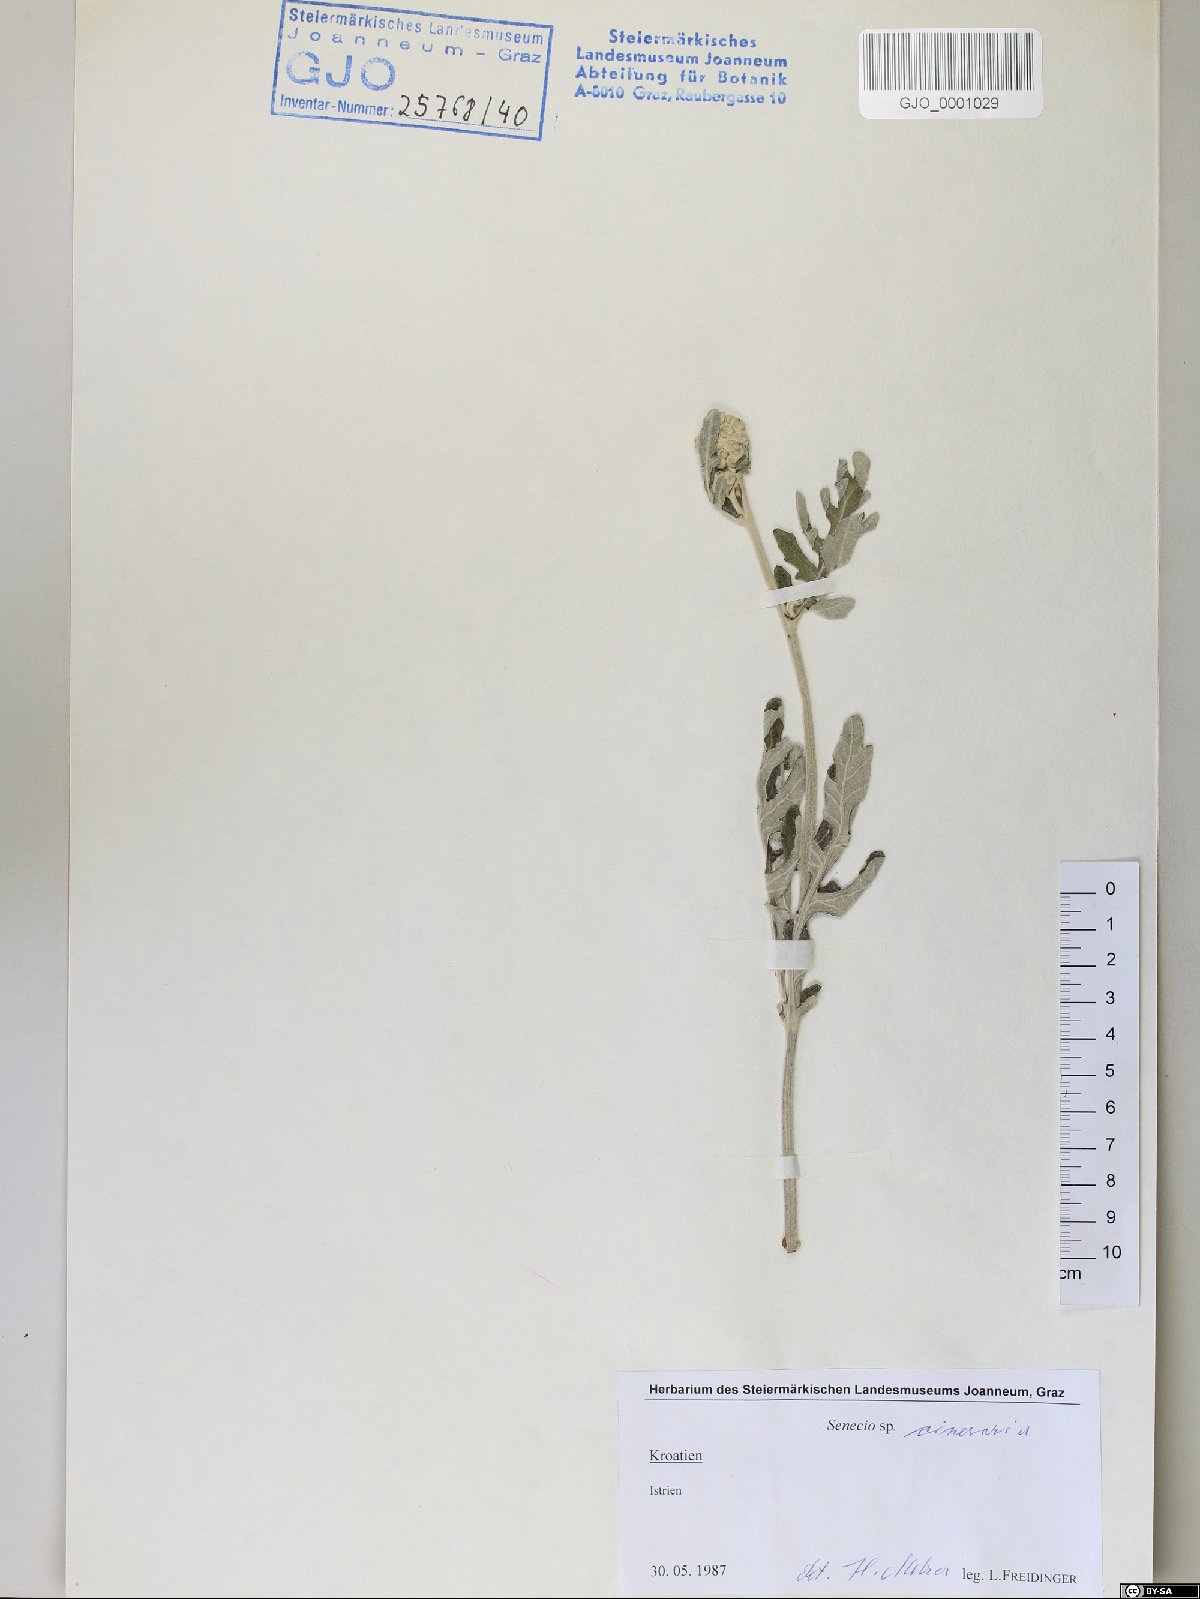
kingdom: Plantae
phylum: Tracheophyta
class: Magnoliopsida
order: Asterales
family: Asteraceae
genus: Senecio
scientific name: Senecio
